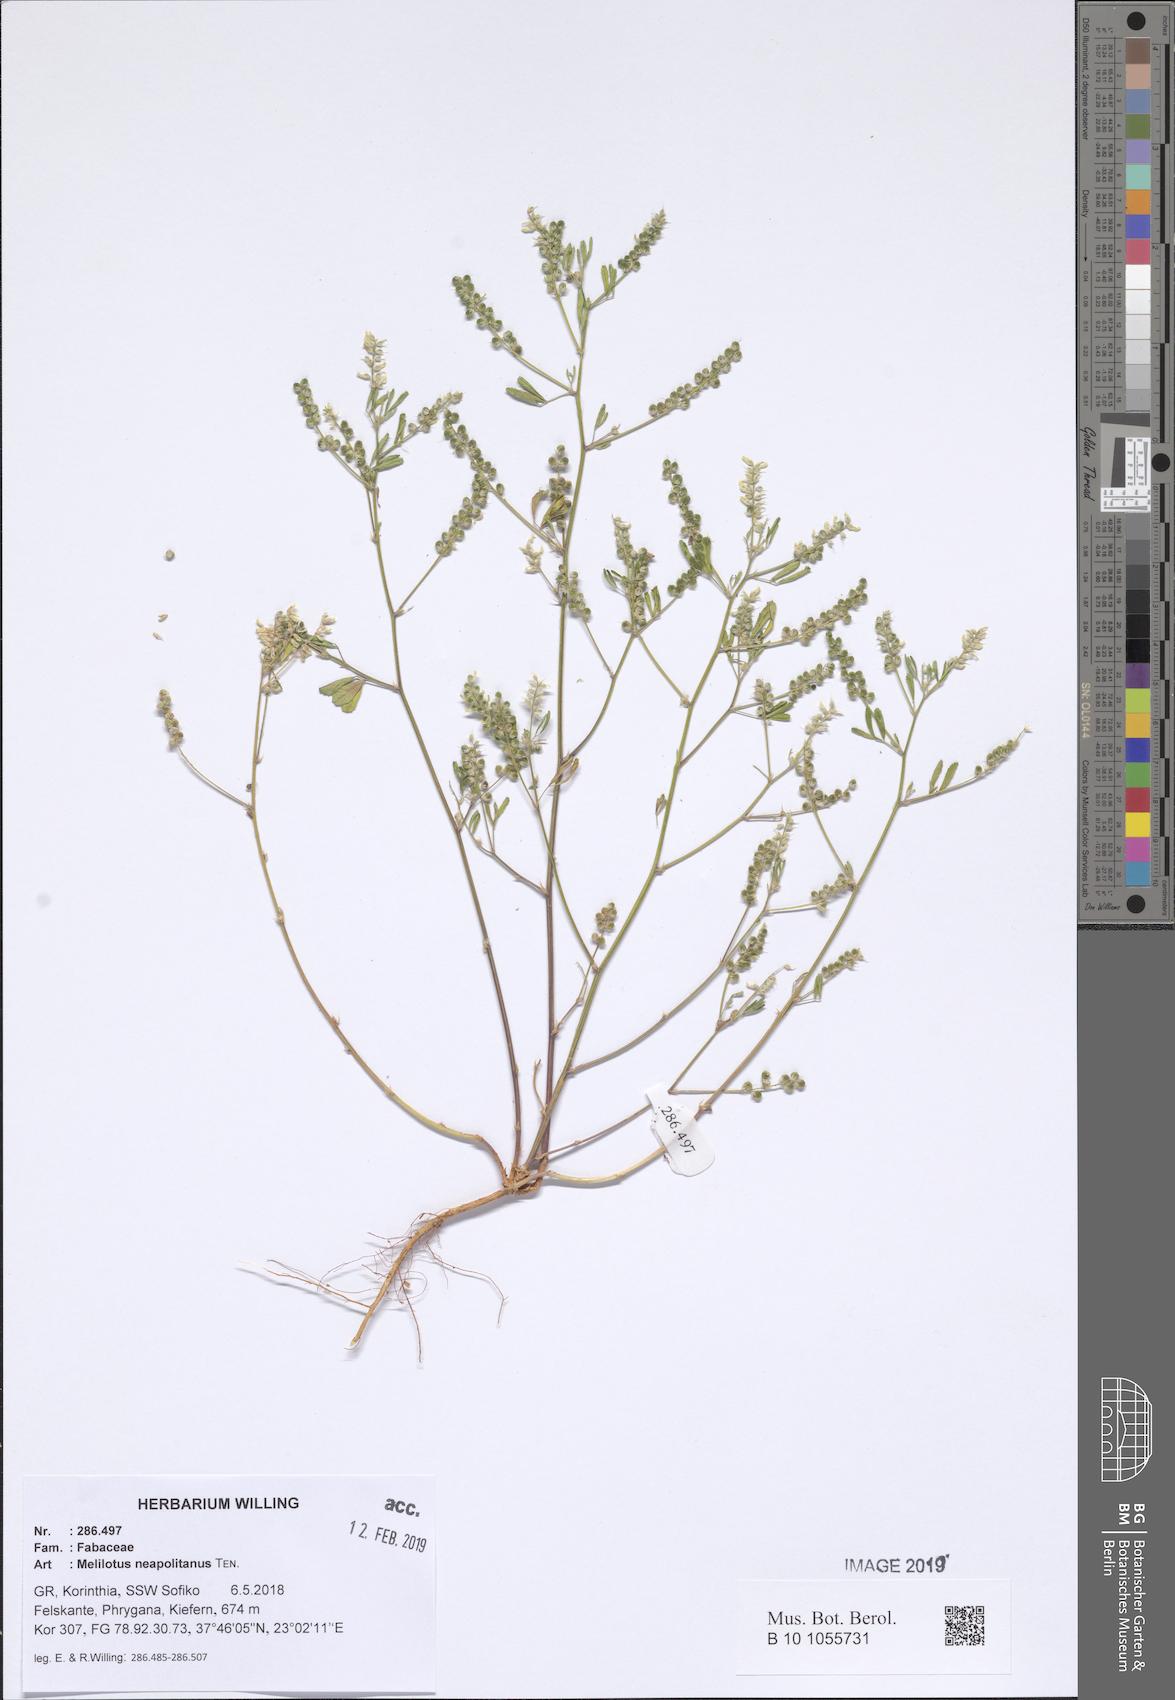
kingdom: Plantae
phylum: Tracheophyta
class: Magnoliopsida
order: Fabales
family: Fabaceae
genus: Melilotus
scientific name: Melilotus neapolitanus
